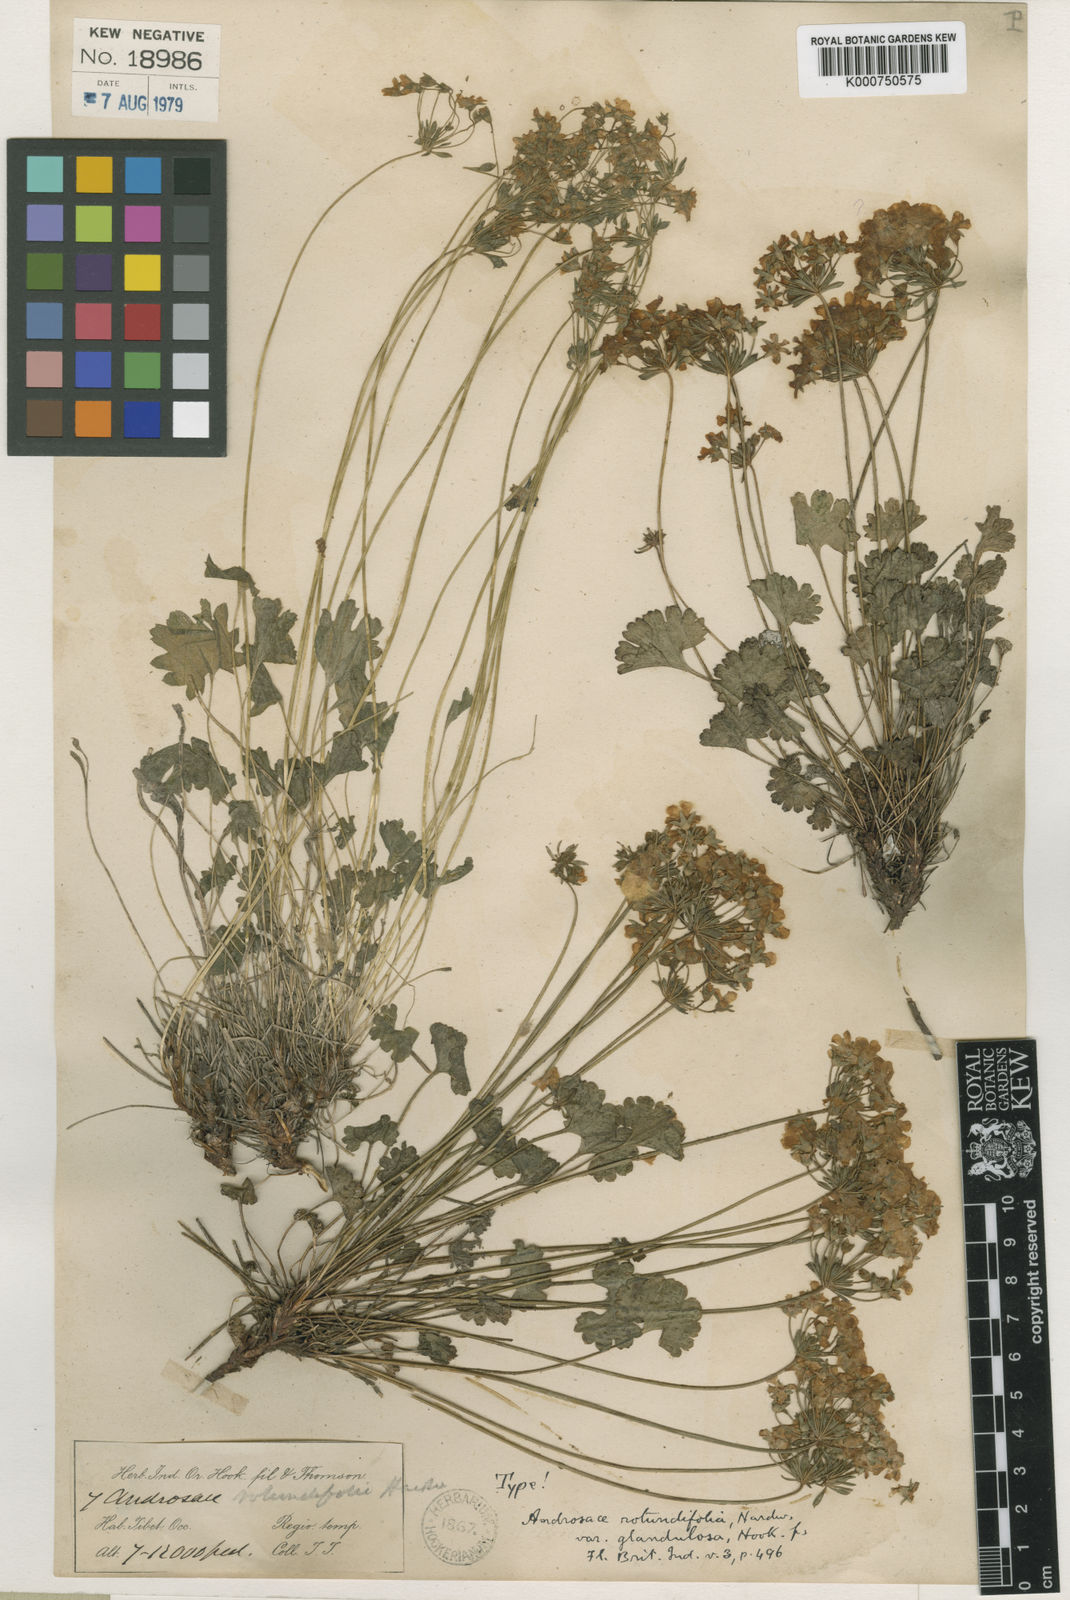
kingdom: Plantae
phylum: Tracheophyta
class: Magnoliopsida
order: Ericales
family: Primulaceae
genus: Androsace
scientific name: Androsace rotundifolia
